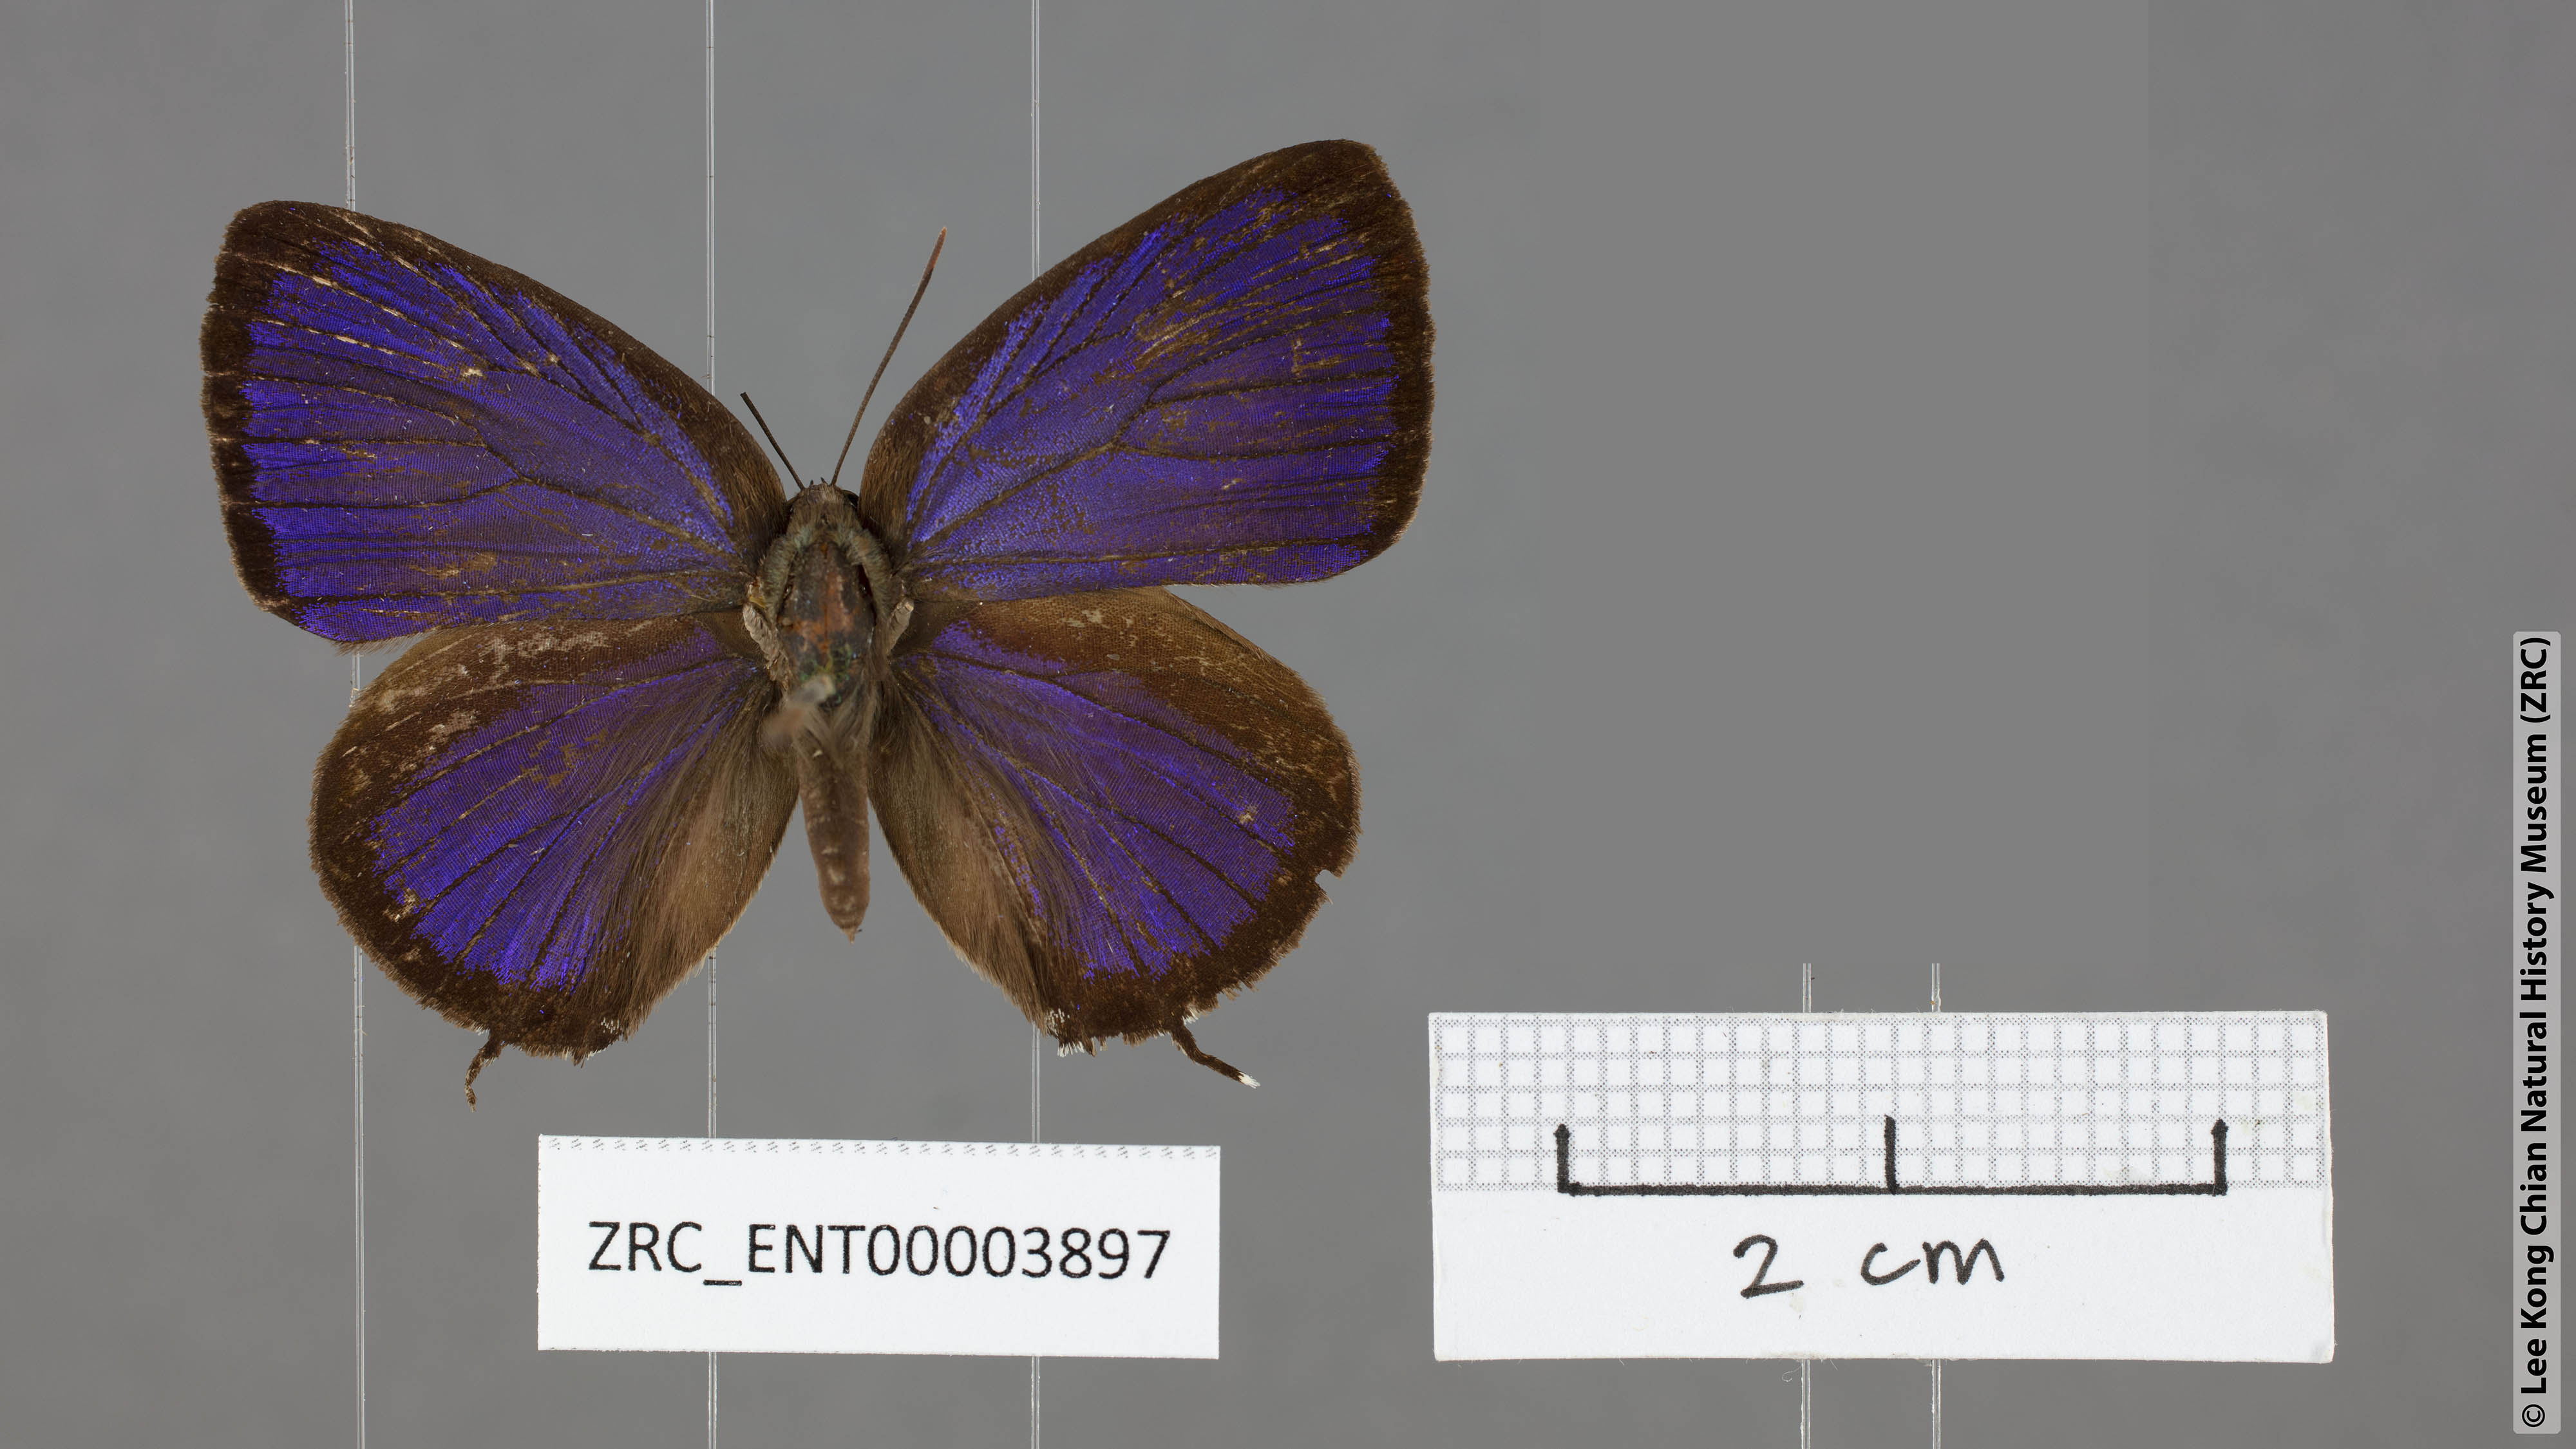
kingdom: Animalia
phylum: Arthropoda
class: Insecta
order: Lepidoptera
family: Lycaenidae
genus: Arhopala
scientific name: Arhopala cleander
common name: Large mergui oakblue
